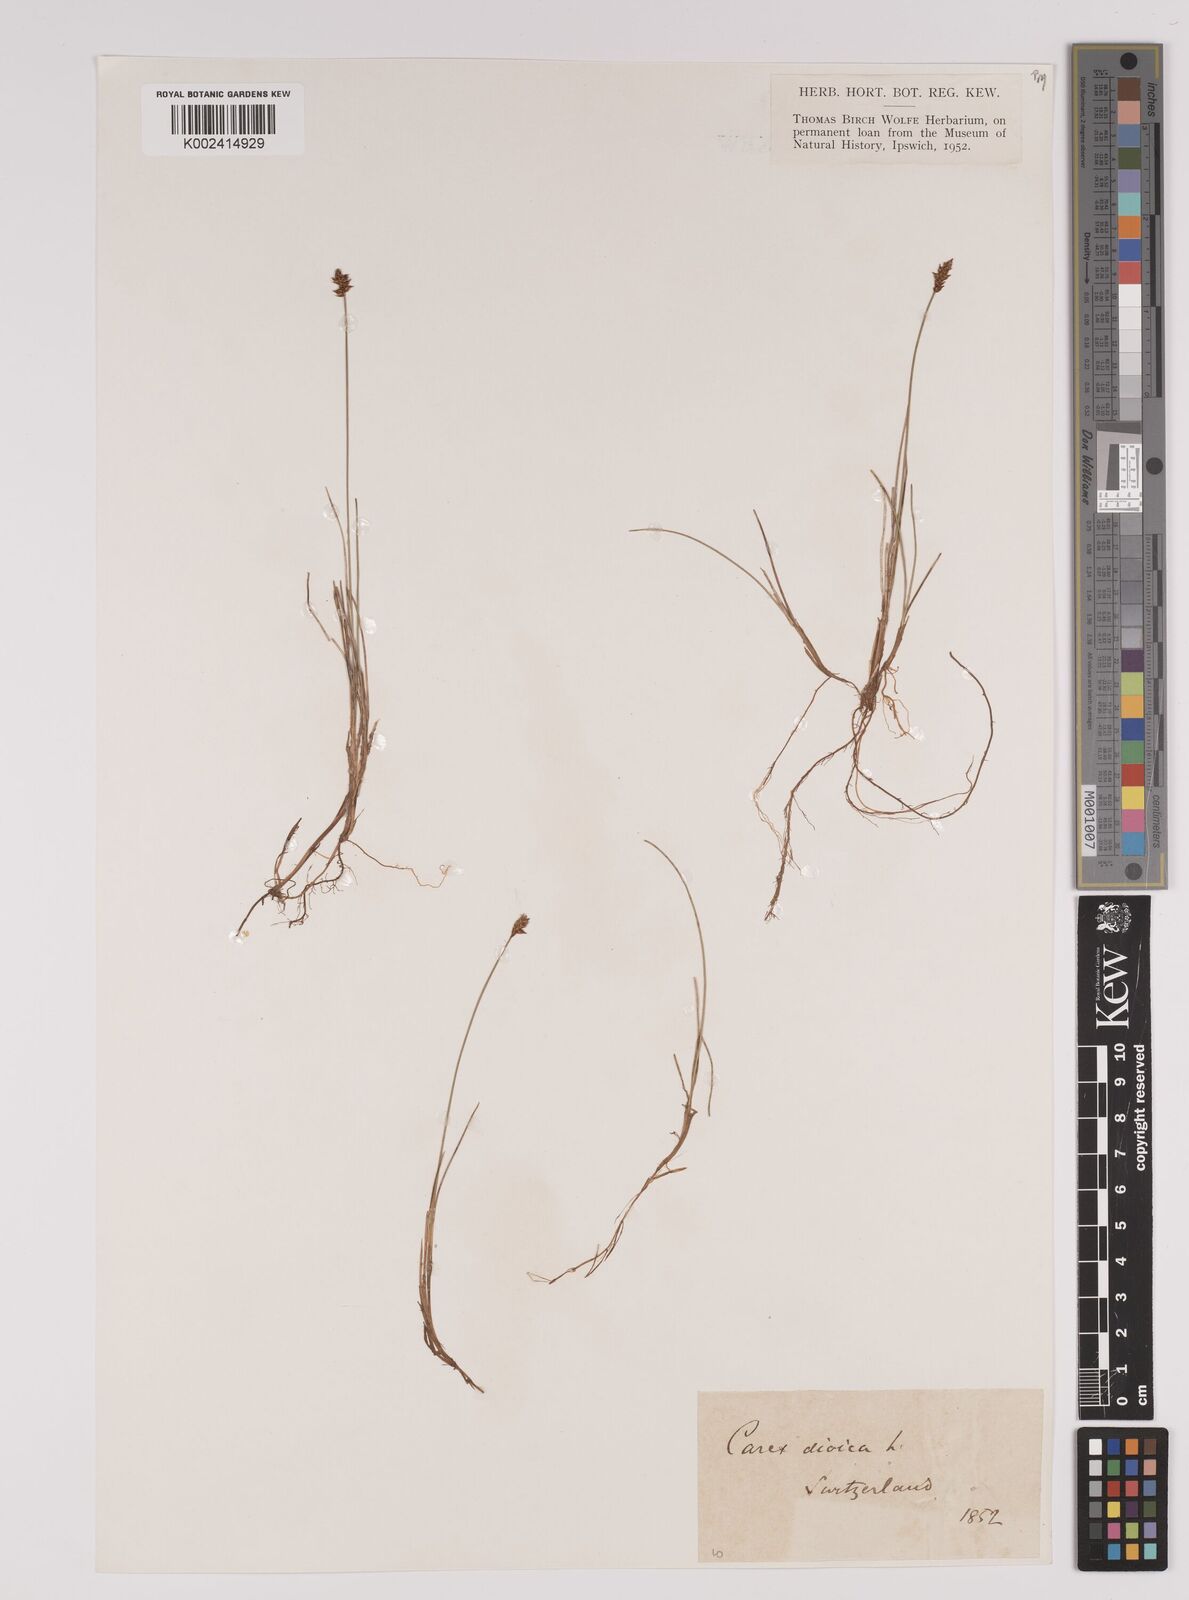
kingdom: Plantae
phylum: Tracheophyta
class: Liliopsida
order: Poales
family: Cyperaceae
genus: Carex
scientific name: Carex dioica
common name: Dioecious sedge
